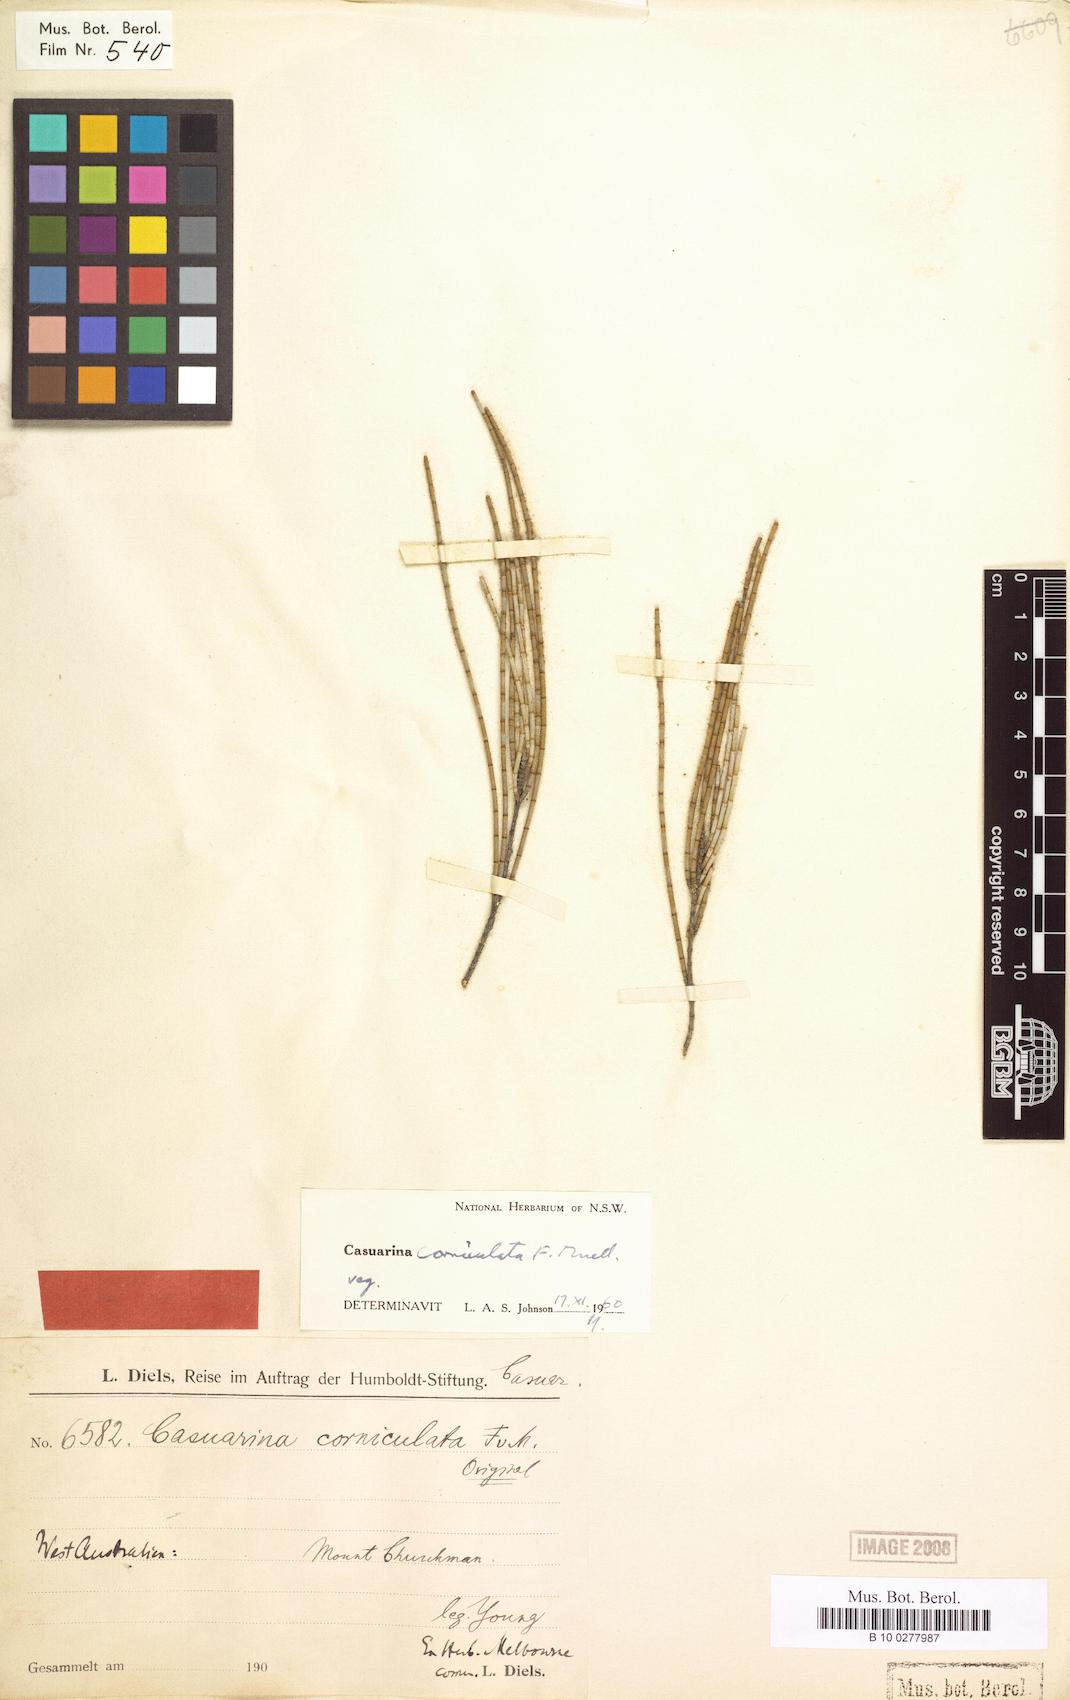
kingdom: Plantae
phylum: Tracheophyta
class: Magnoliopsida
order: Fagales
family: Casuarinaceae
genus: Allocasuarina
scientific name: Allocasuarina corniculata
